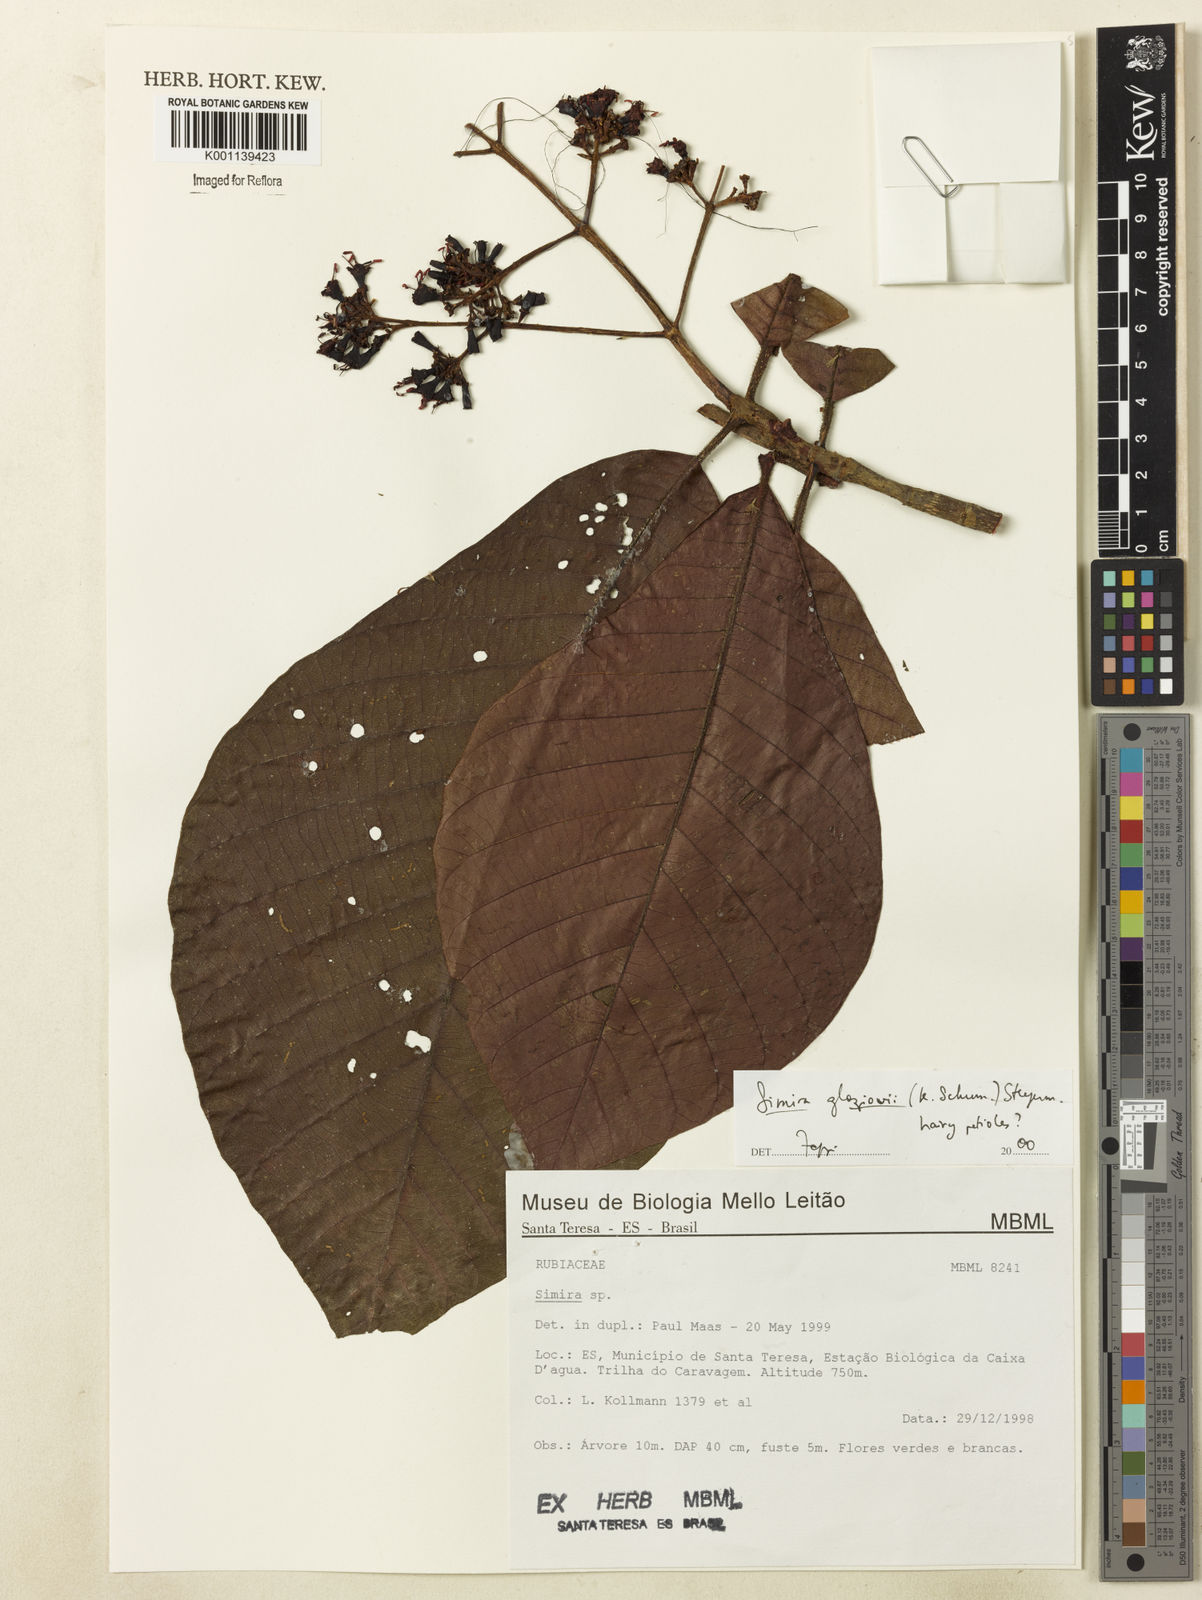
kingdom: Plantae
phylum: Tracheophyta
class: Magnoliopsida
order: Gentianales
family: Rubiaceae
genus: Simira
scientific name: Simira alba
